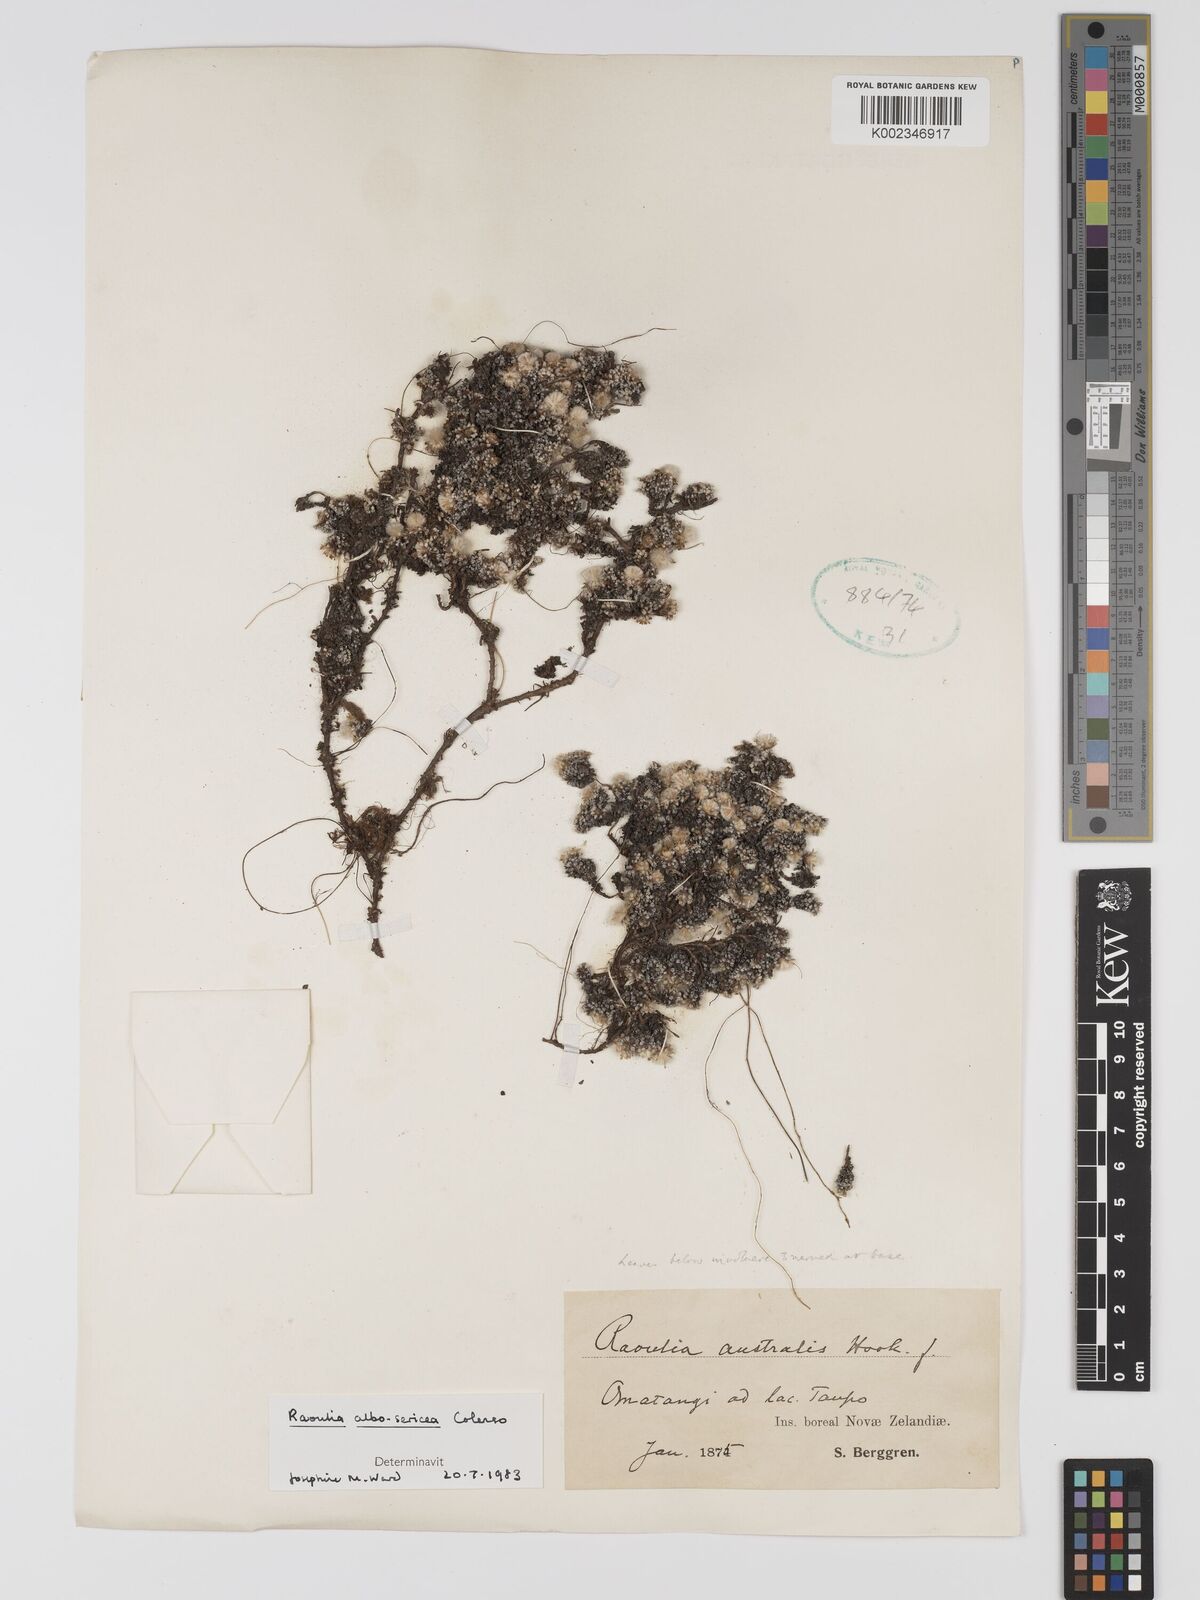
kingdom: Plantae
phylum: Tracheophyta
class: Magnoliopsida
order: Asterales
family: Asteraceae
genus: Raoulia
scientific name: Raoulia albosericea
